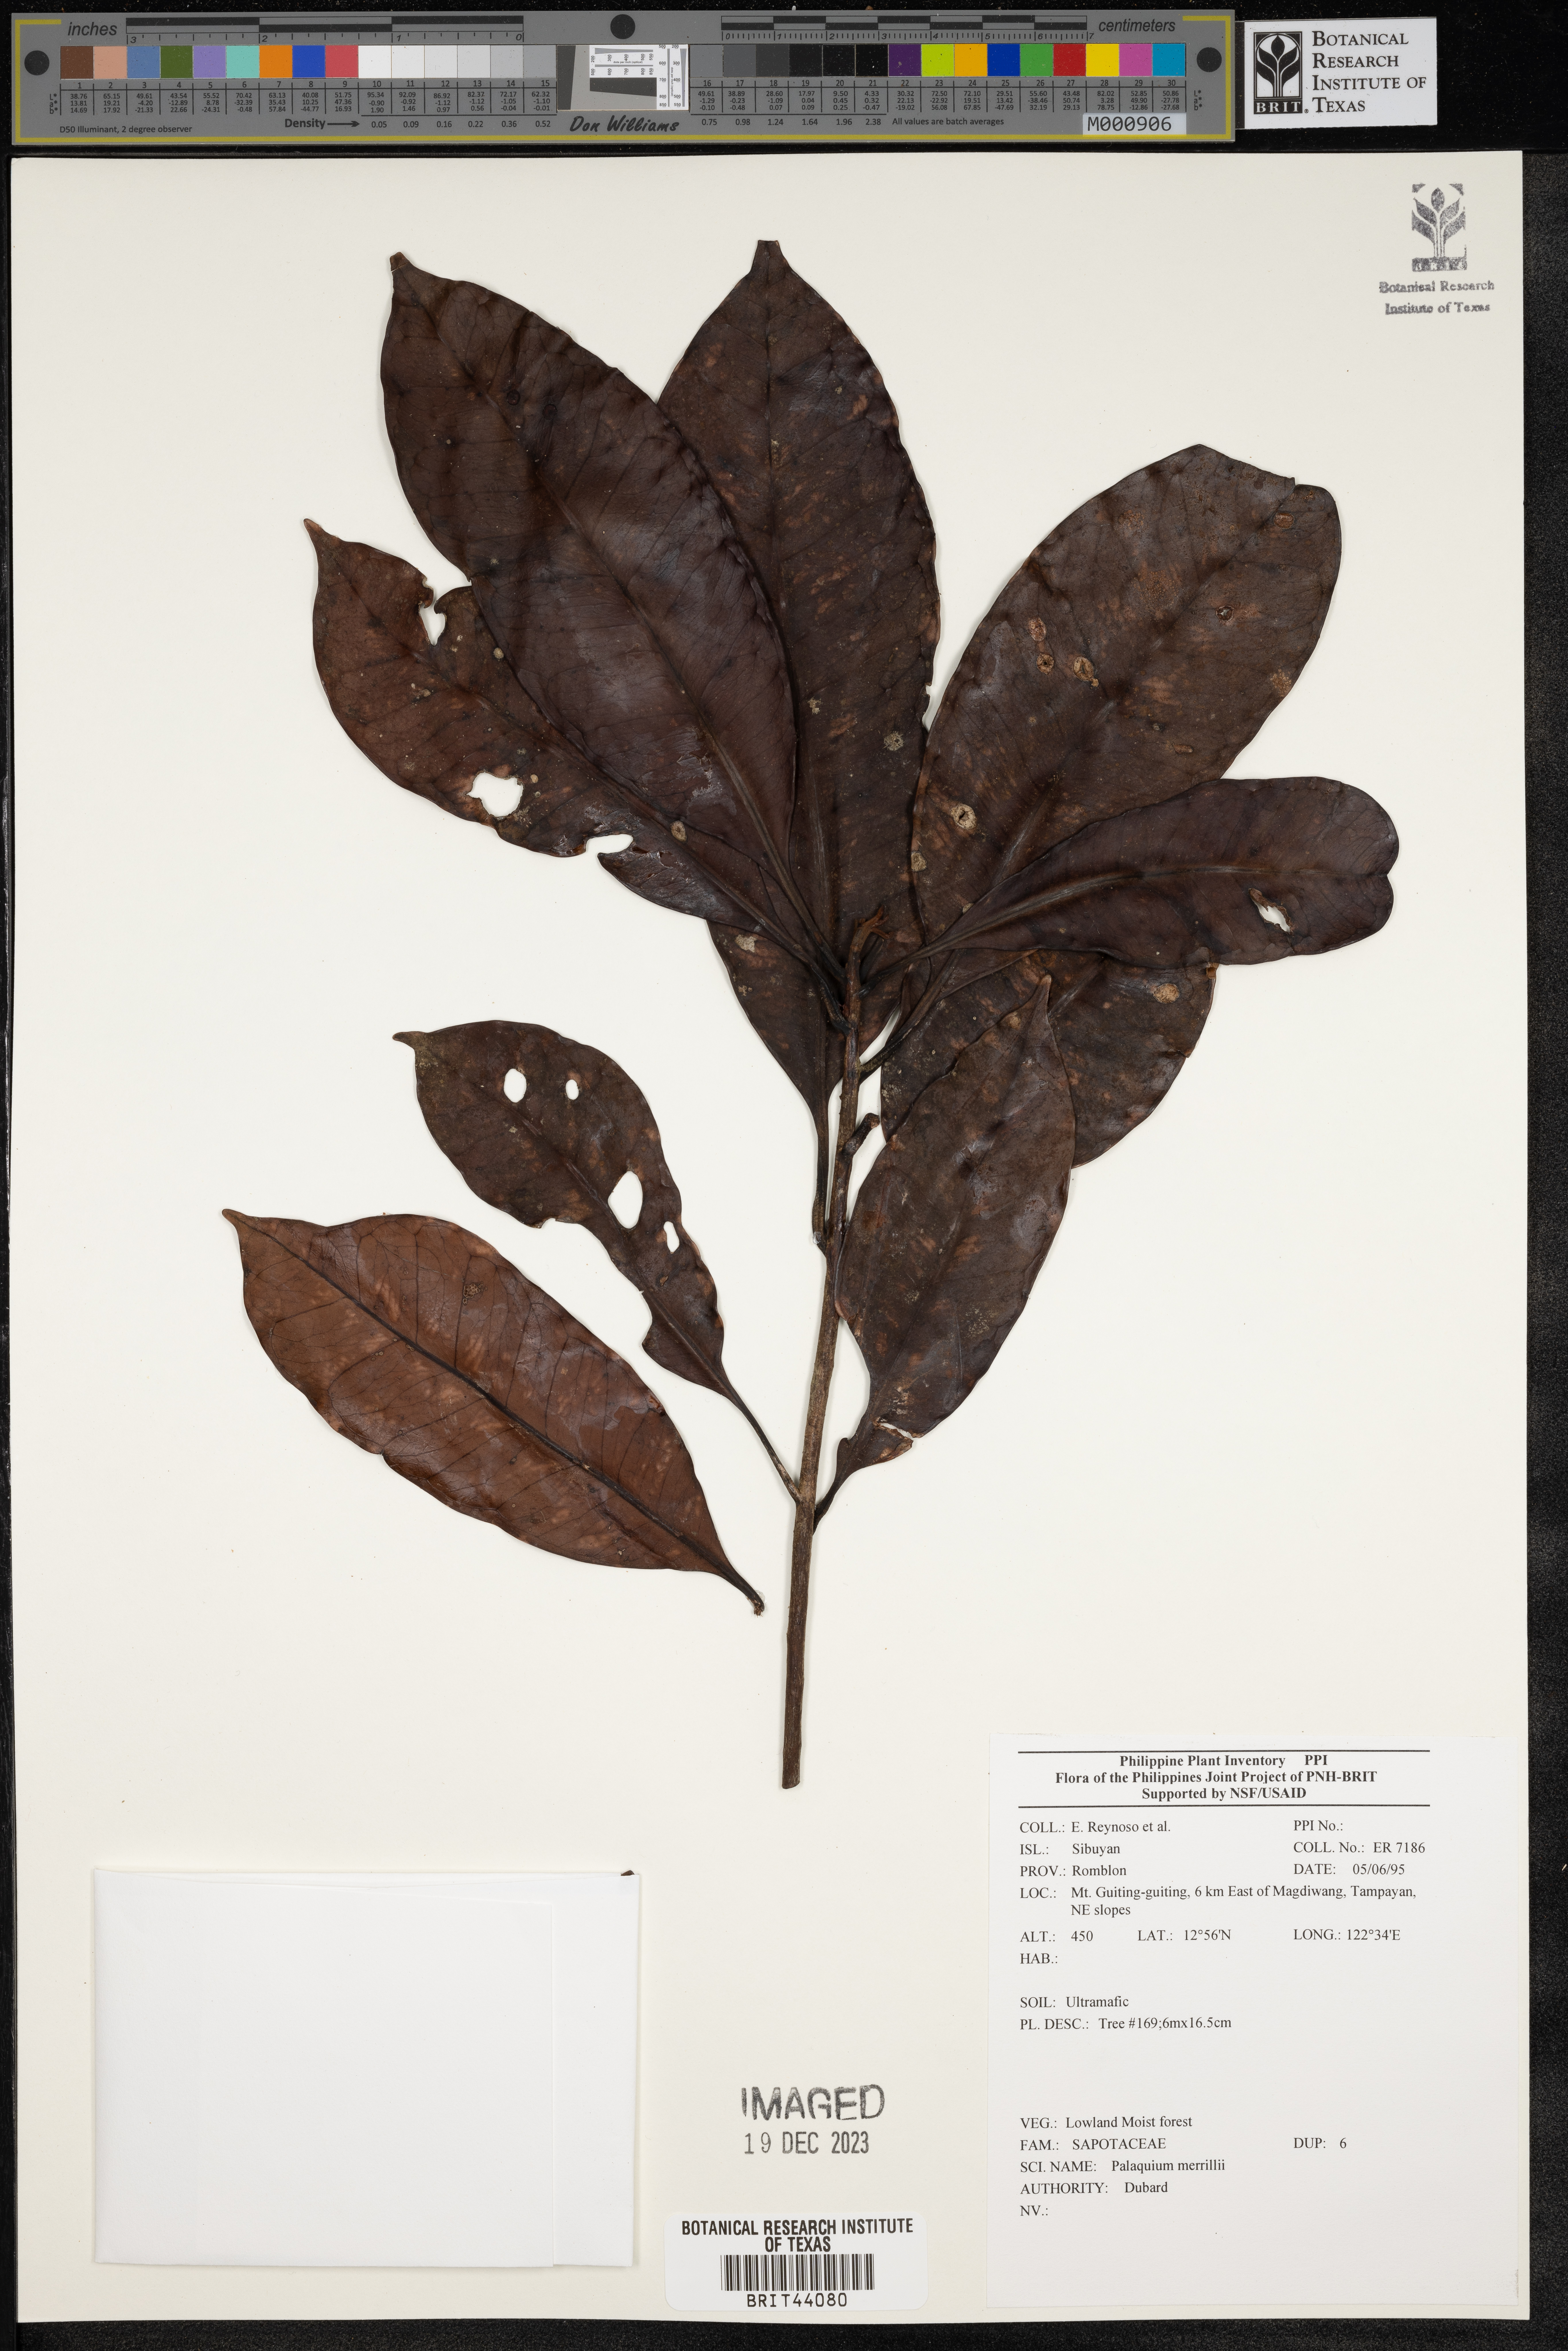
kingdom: Plantae
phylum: Tracheophyta
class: Magnoliopsida
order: Ericales
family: Sapotaceae
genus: Palaquium
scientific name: Palaquium
